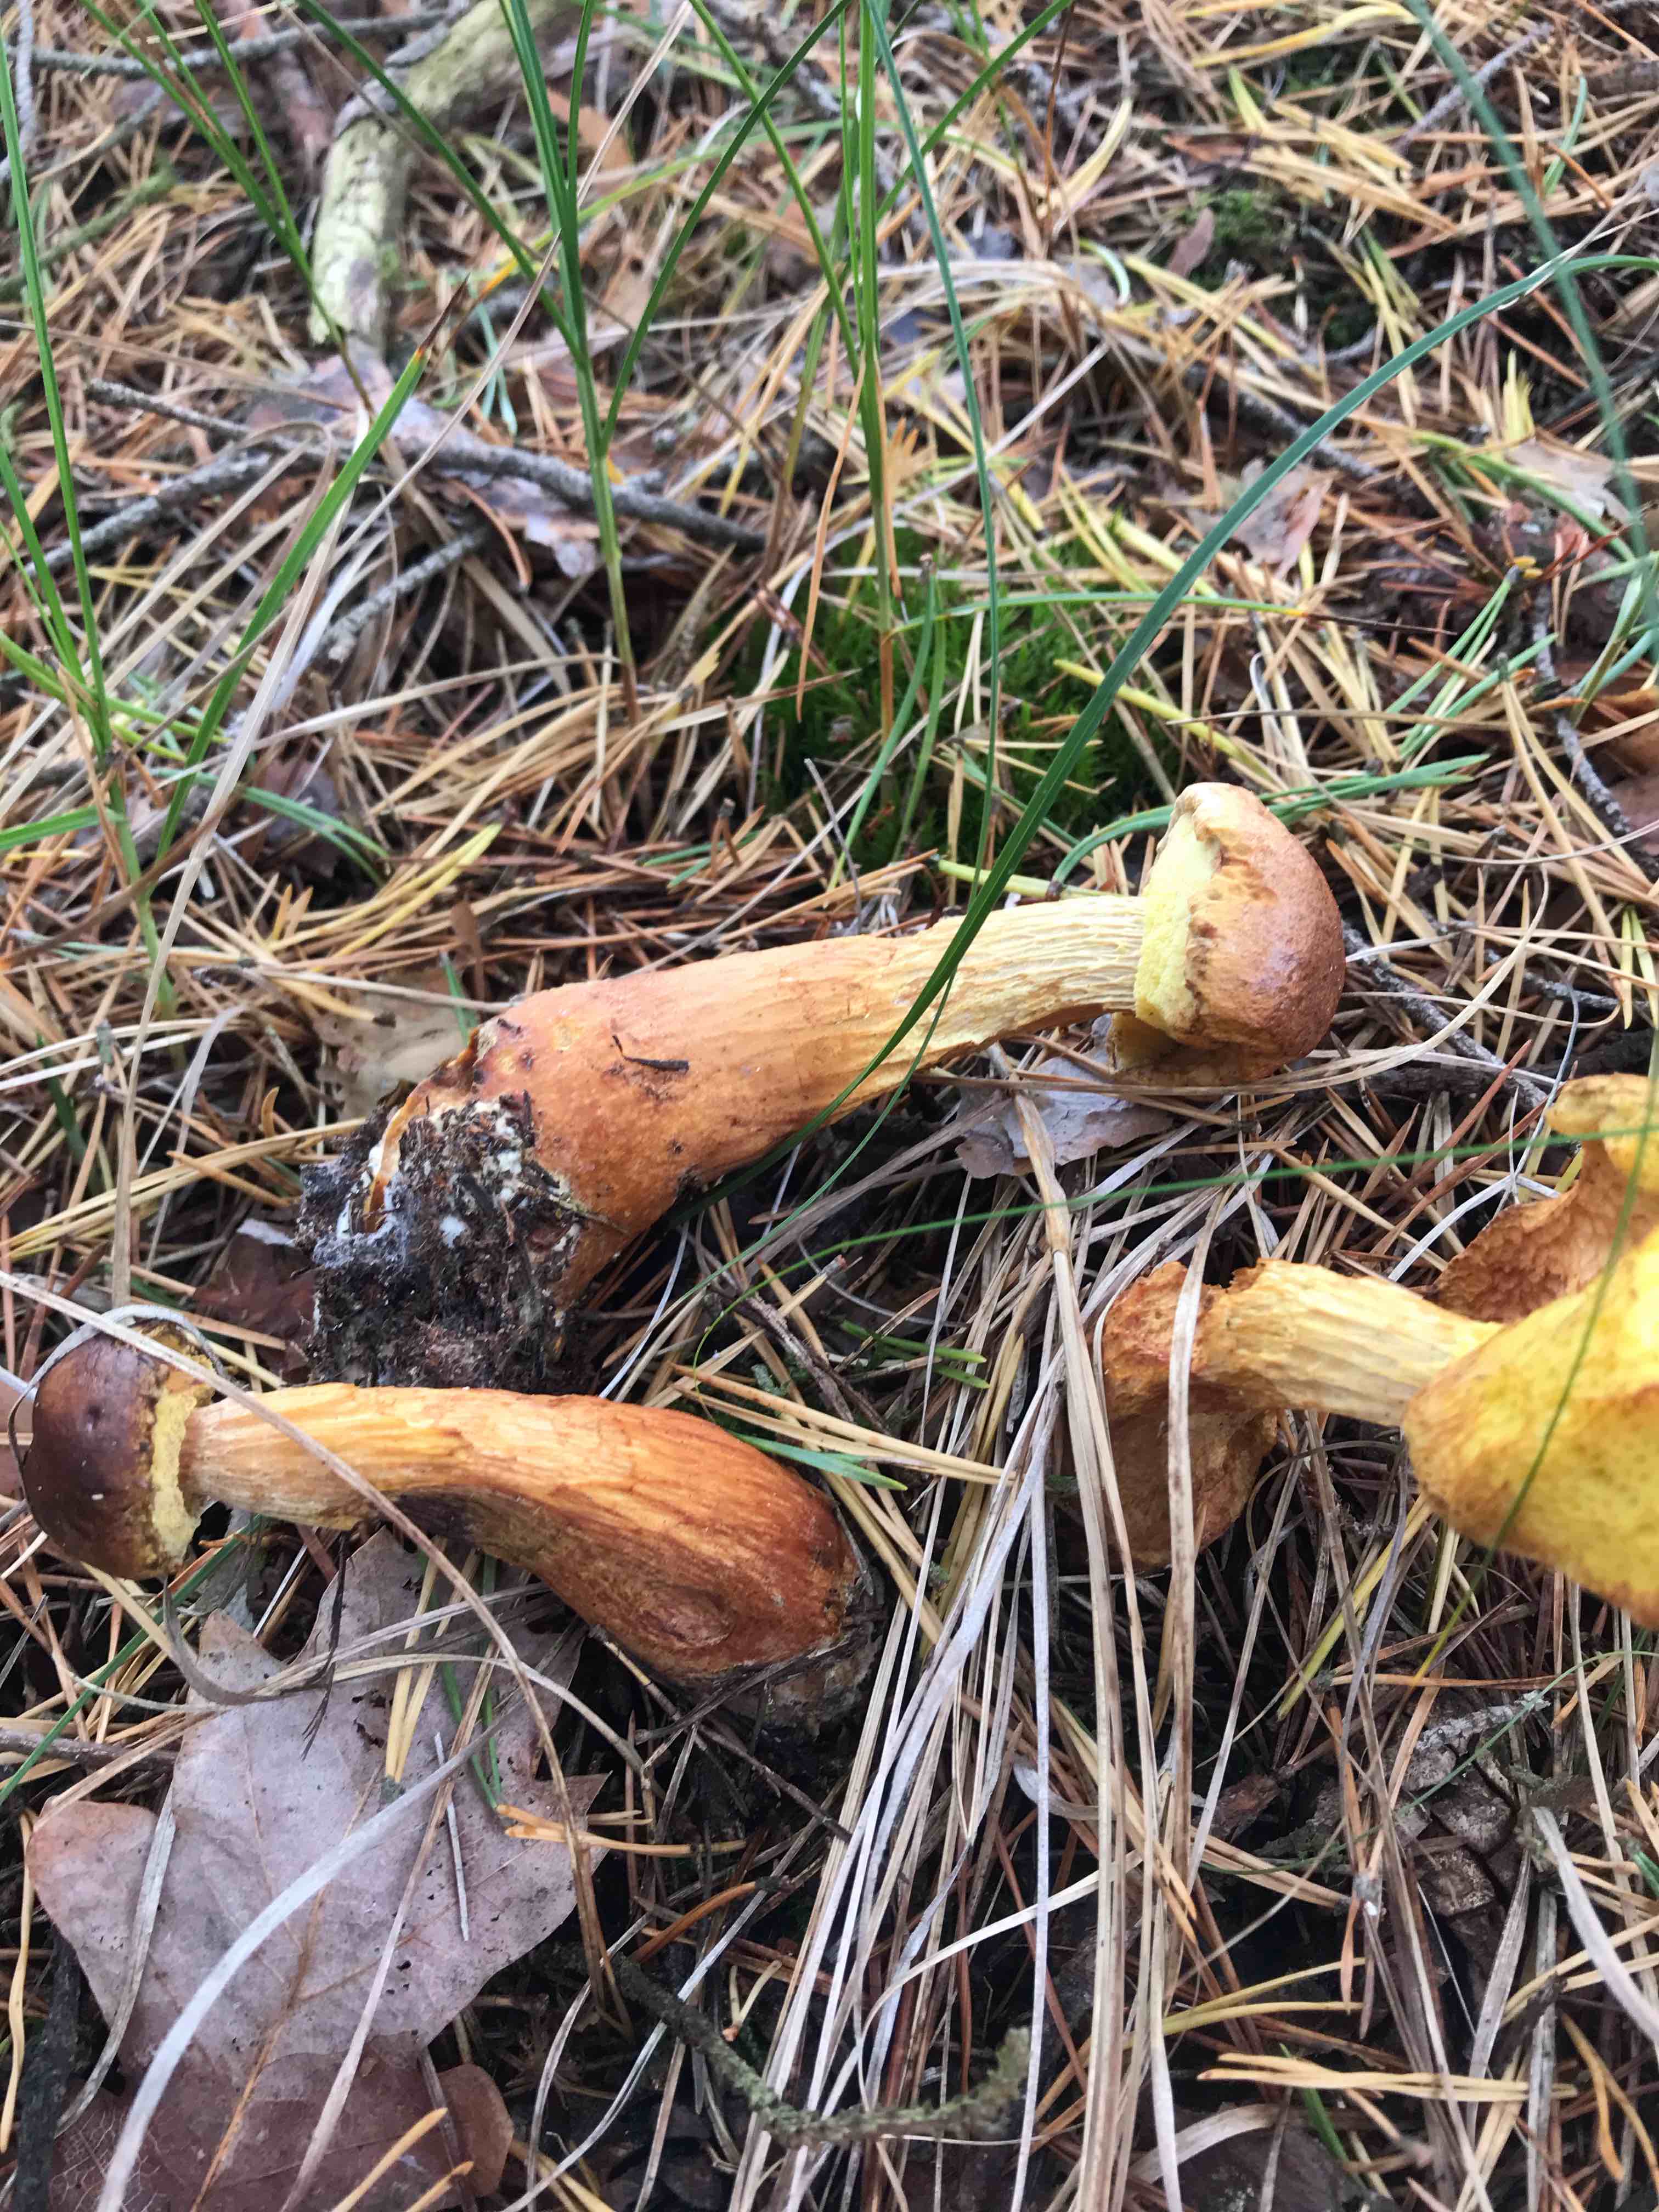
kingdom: Fungi
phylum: Basidiomycota
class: Agaricomycetes
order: Boletales
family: Boletaceae
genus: Aureoboletus
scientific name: Aureoboletus projectellus
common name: ribbestokket rørhat
